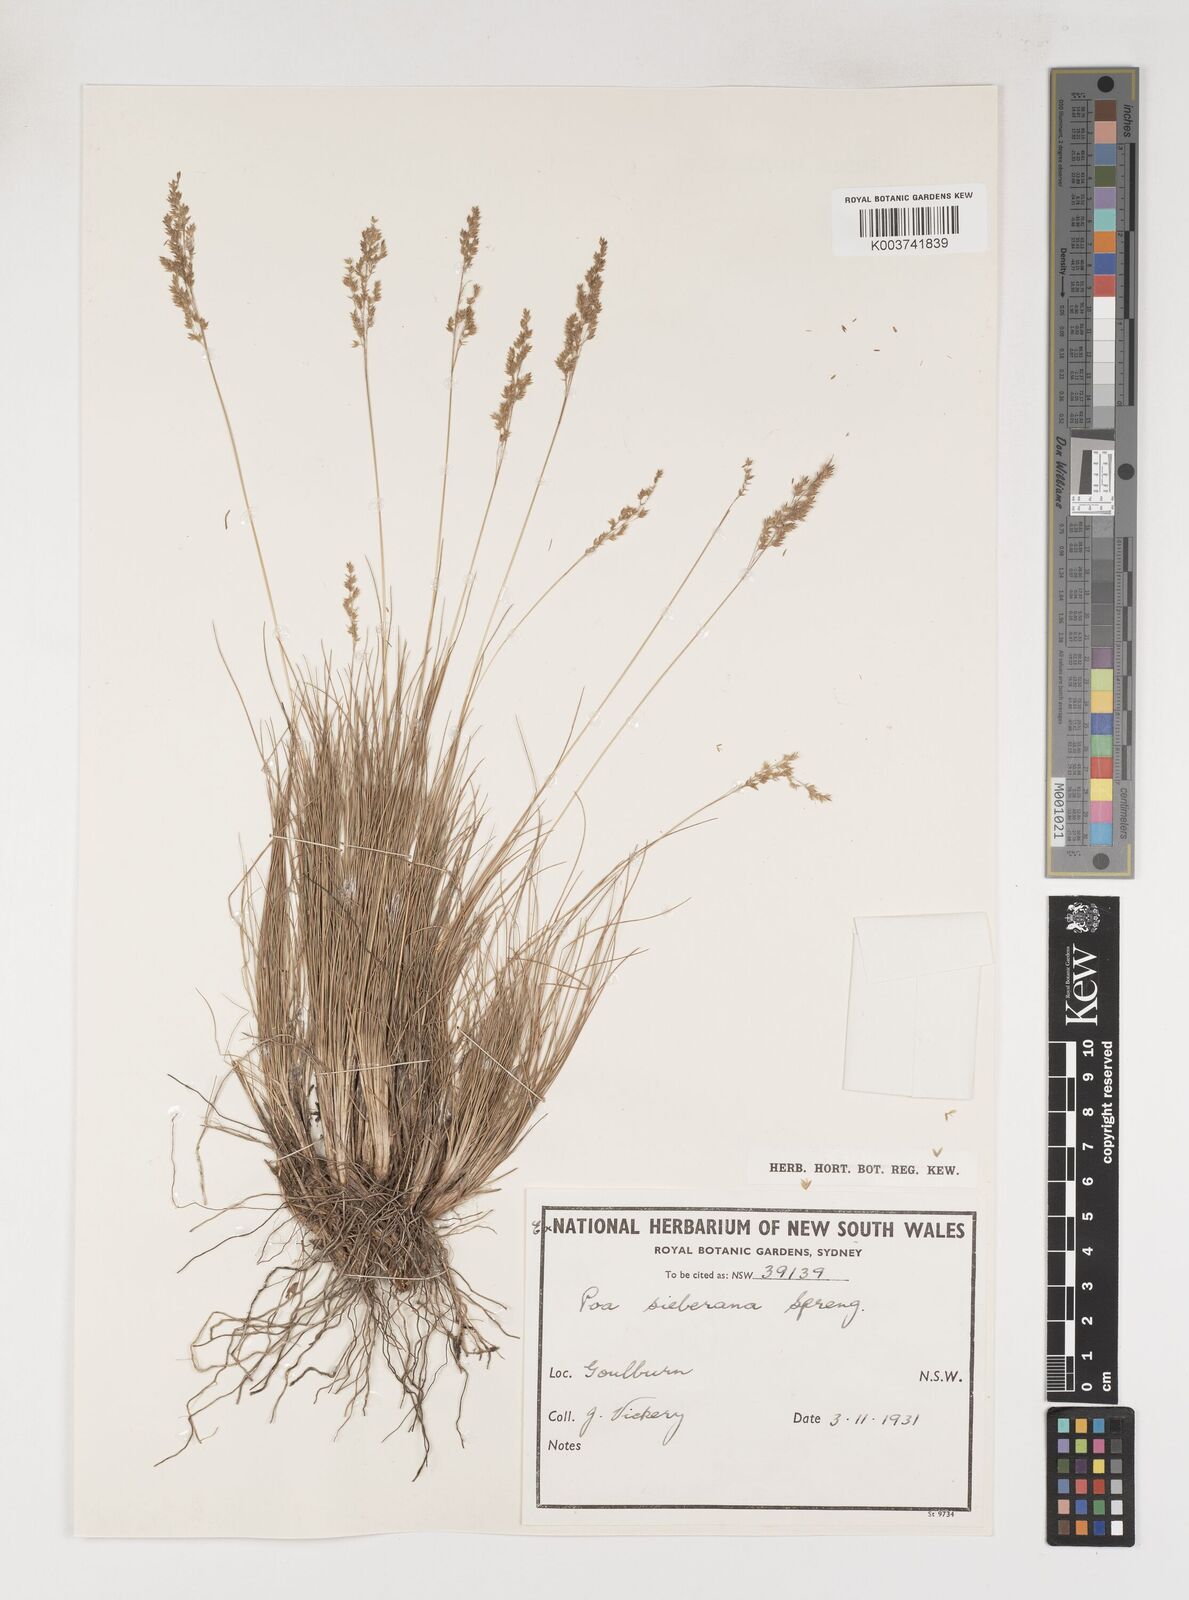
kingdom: Plantae
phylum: Tracheophyta
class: Liliopsida
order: Poales
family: Poaceae
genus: Poa
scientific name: Poa sieberiana
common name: Tussock poa
